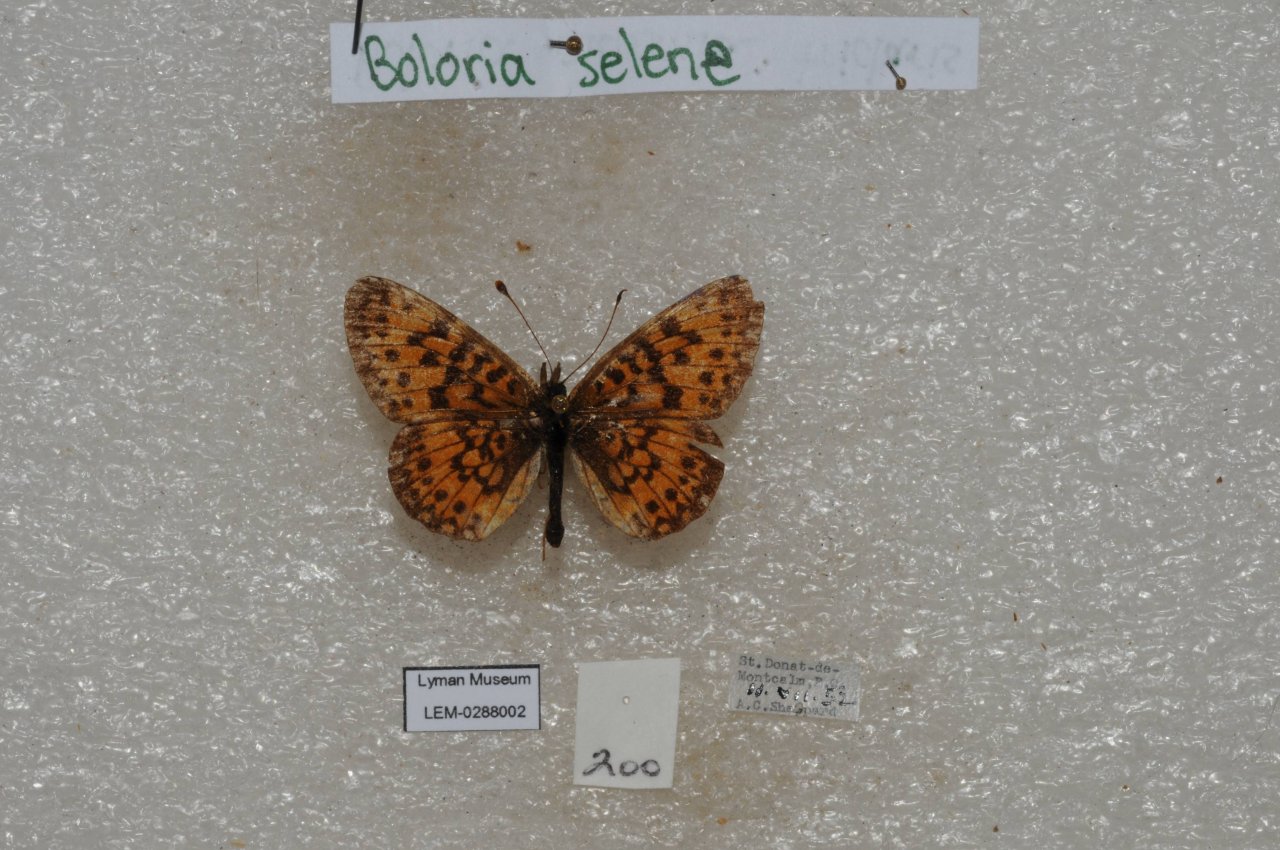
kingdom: Animalia
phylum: Arthropoda
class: Insecta
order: Lepidoptera
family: Nymphalidae
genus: Boloria
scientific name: Boloria selene
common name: Silver-bordered Fritillary
